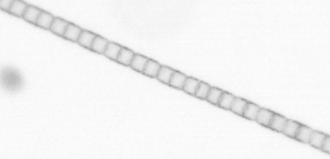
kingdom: Chromista
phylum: Ochrophyta
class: Bacillariophyceae
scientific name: Bacillariophyceae
